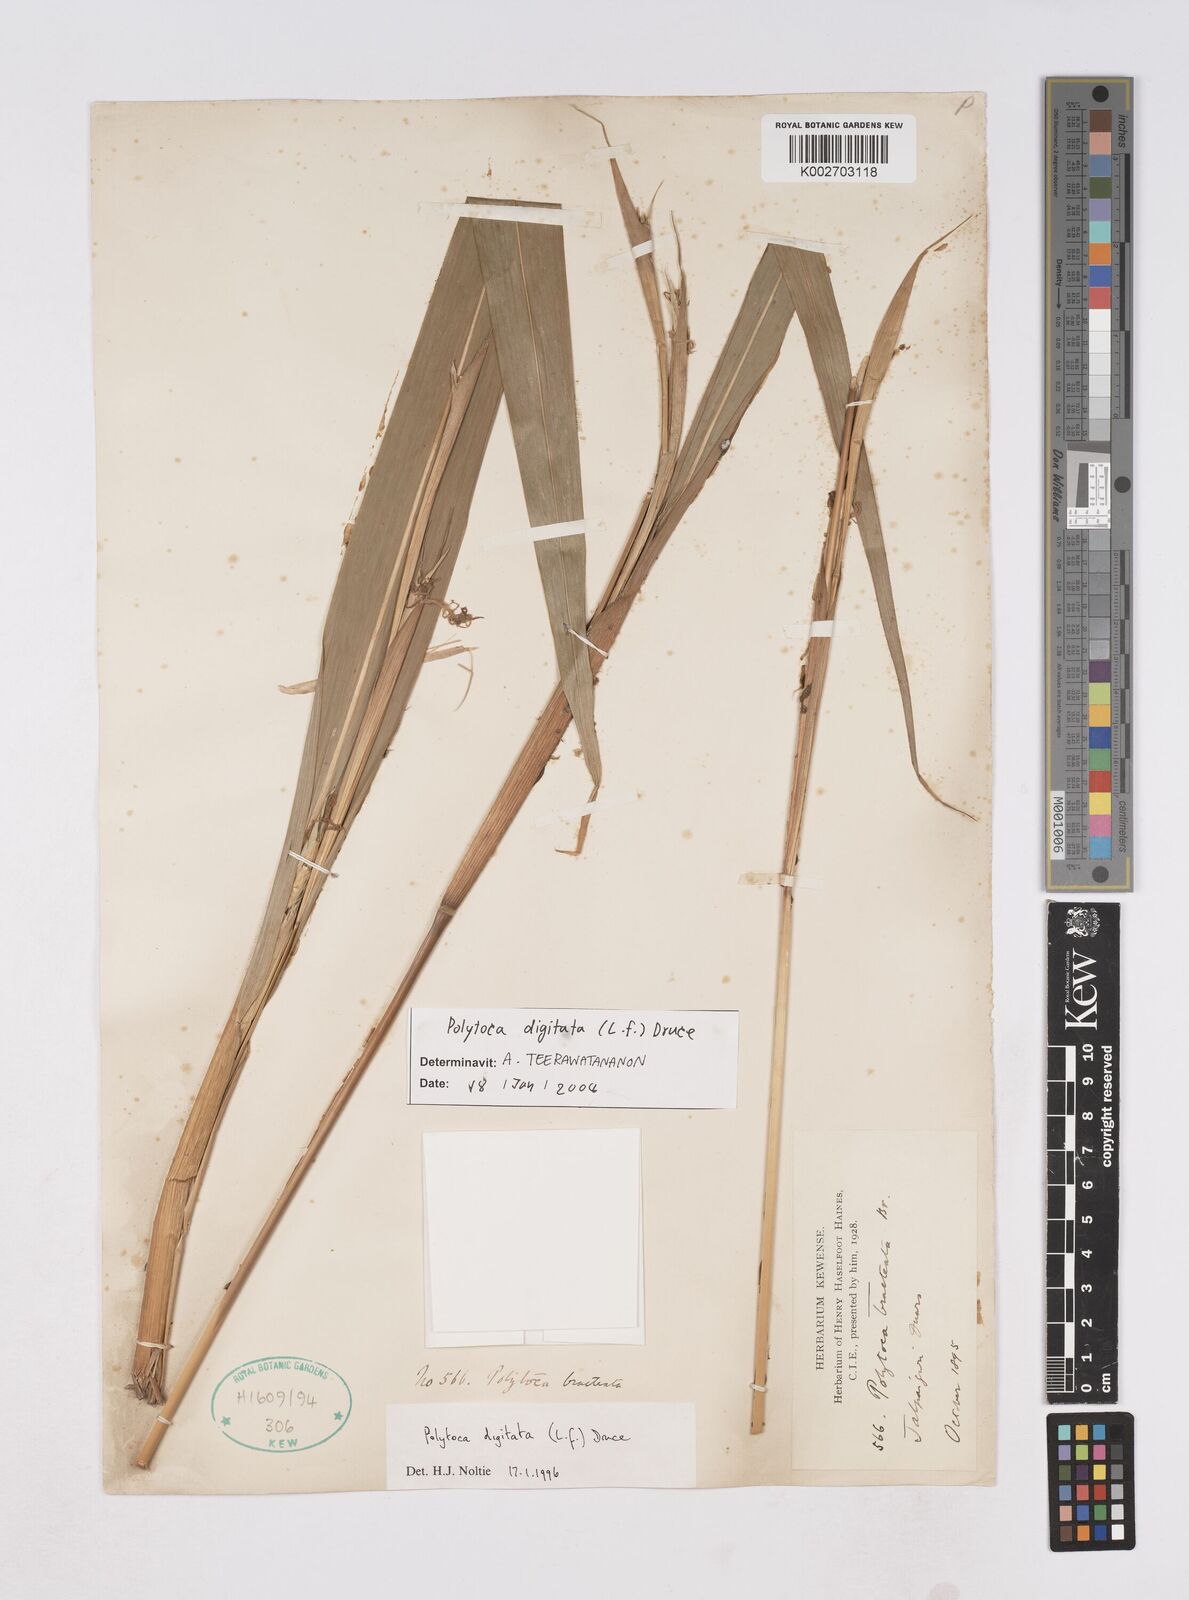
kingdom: Plantae
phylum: Tracheophyta
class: Liliopsida
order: Poales
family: Poaceae
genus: Polytoca
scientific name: Polytoca digitata
